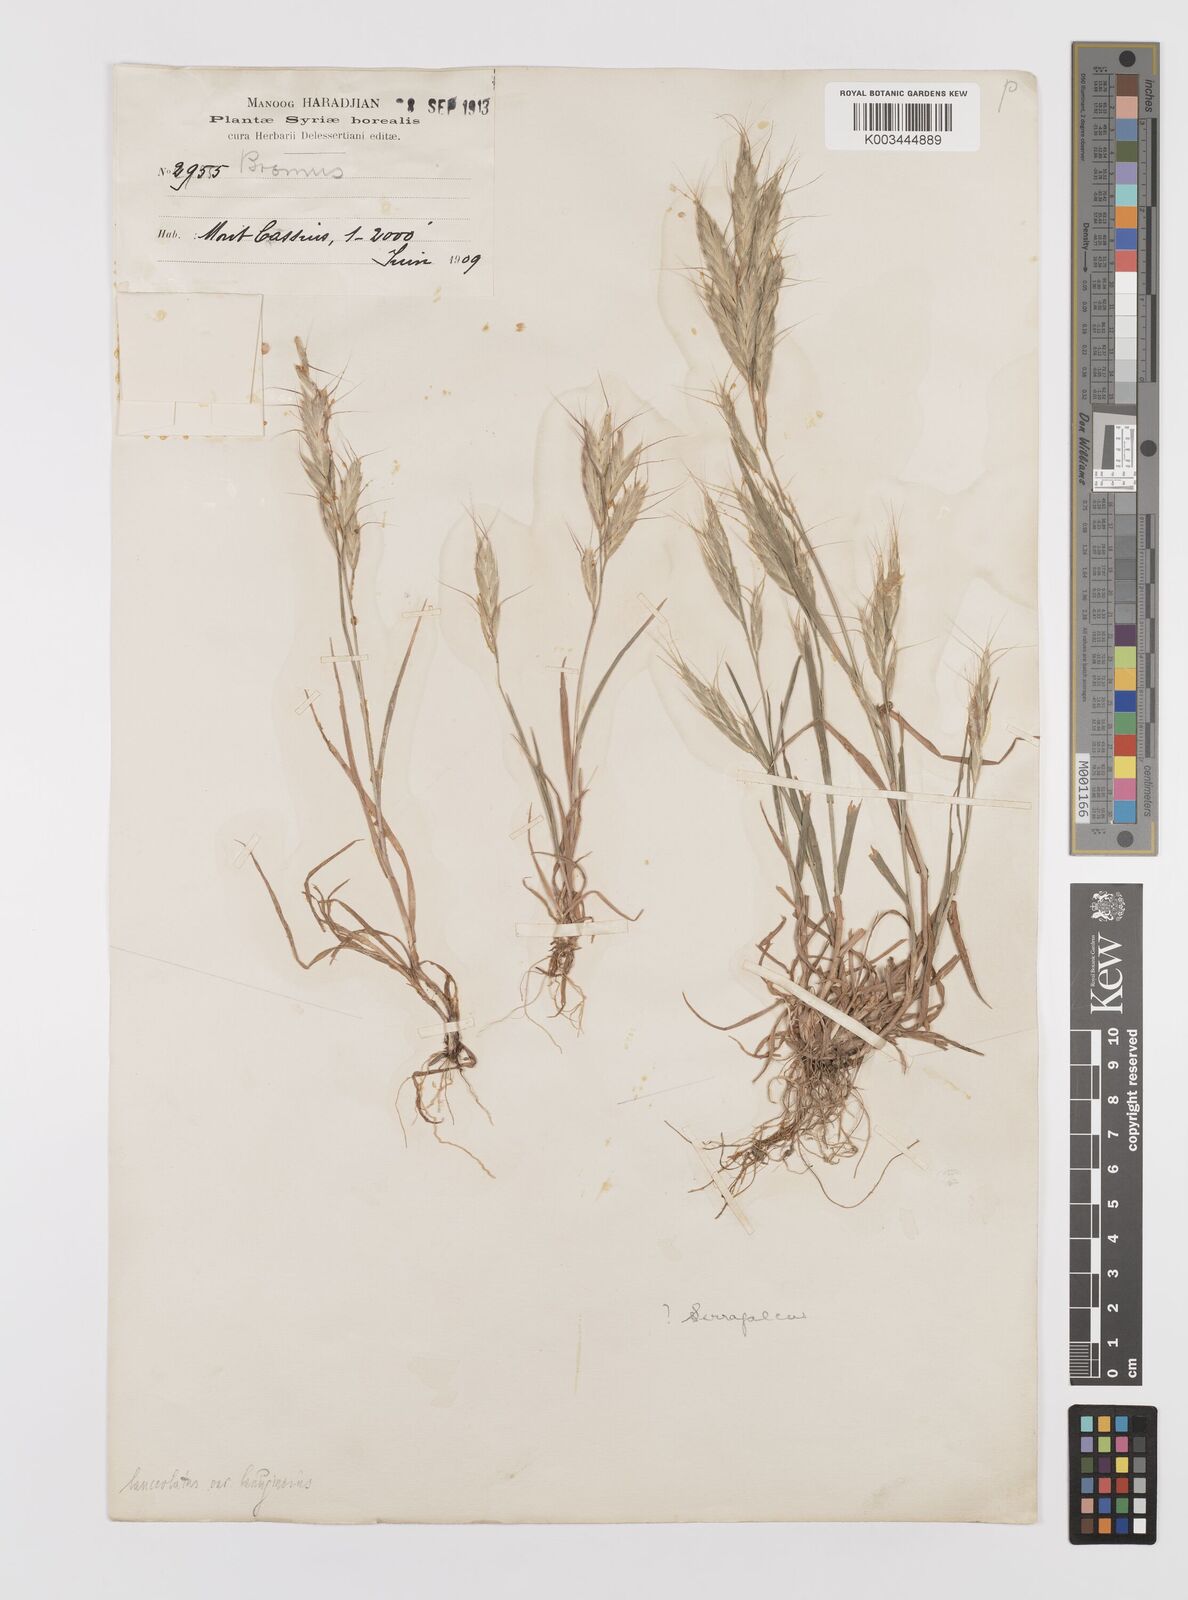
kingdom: Plantae
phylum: Tracheophyta
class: Liliopsida
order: Poales
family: Poaceae
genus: Bromus
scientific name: Bromus lanceolatus
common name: Mediterranean brome
